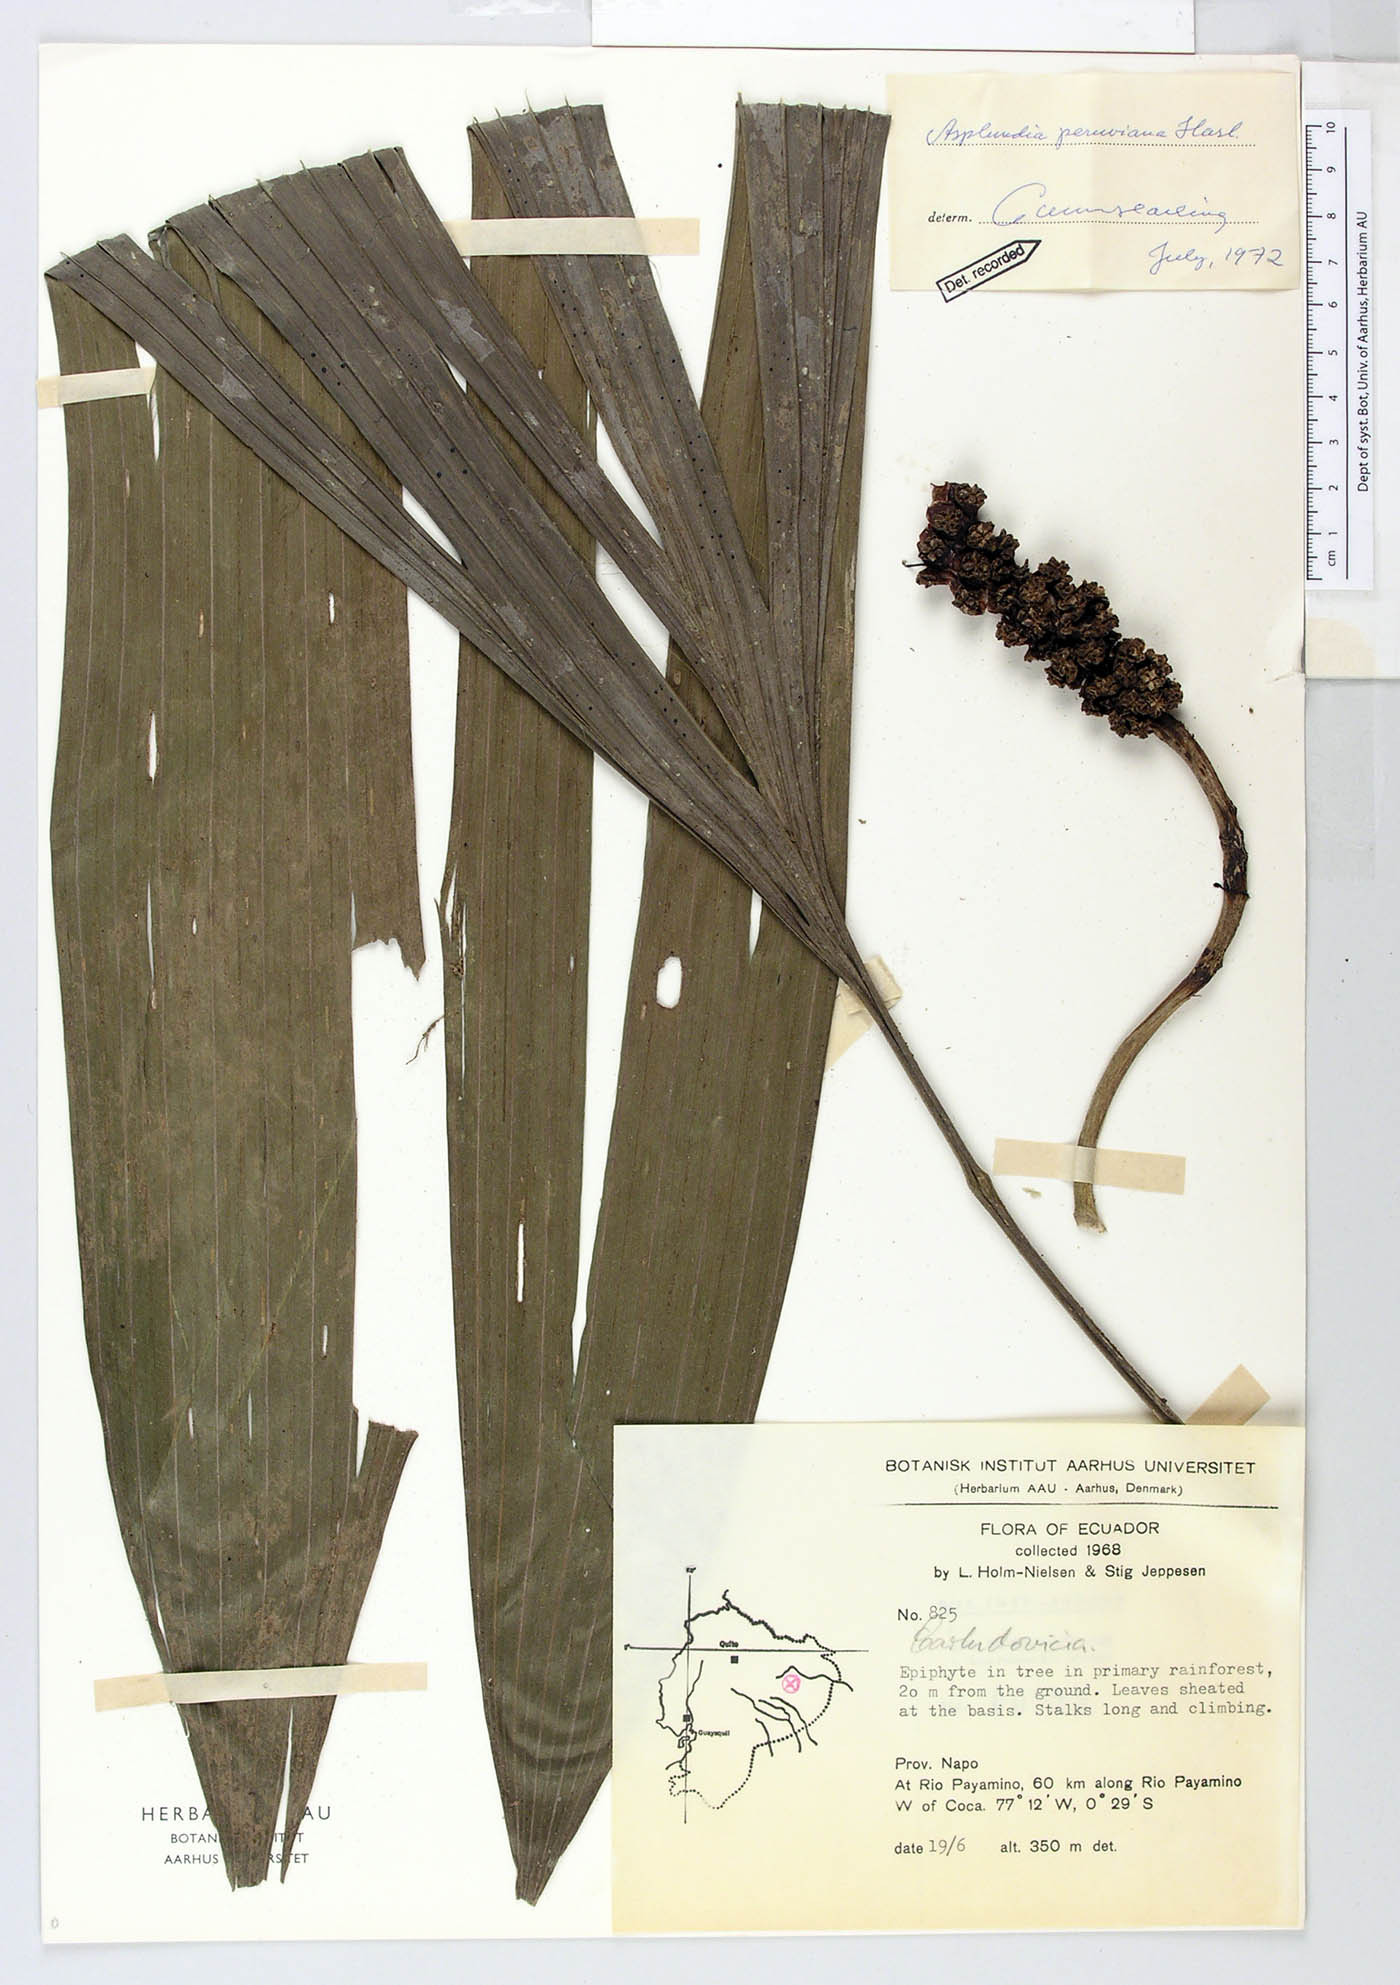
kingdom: Plantae
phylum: Tracheophyta
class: Liliopsida
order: Pandanales
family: Cyclanthaceae
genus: Asplundia
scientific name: Asplundia peruviana
